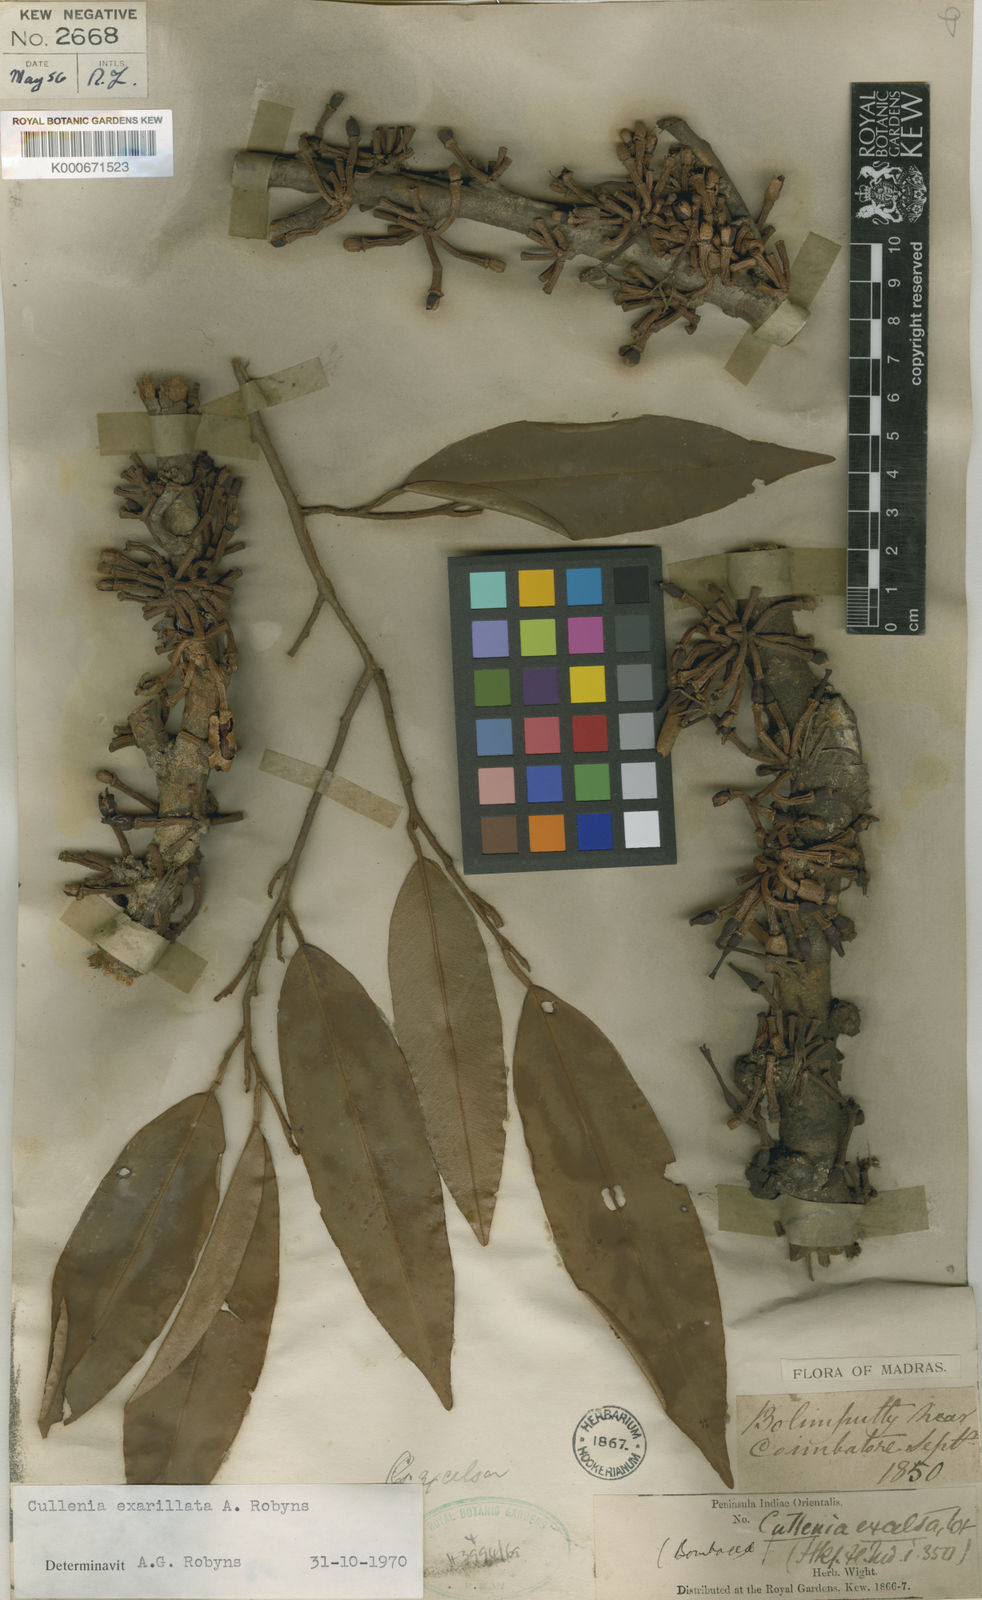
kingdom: Plantae
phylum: Tracheophyta
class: Magnoliopsida
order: Malvales
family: Malvaceae
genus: Durio
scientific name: Durio
